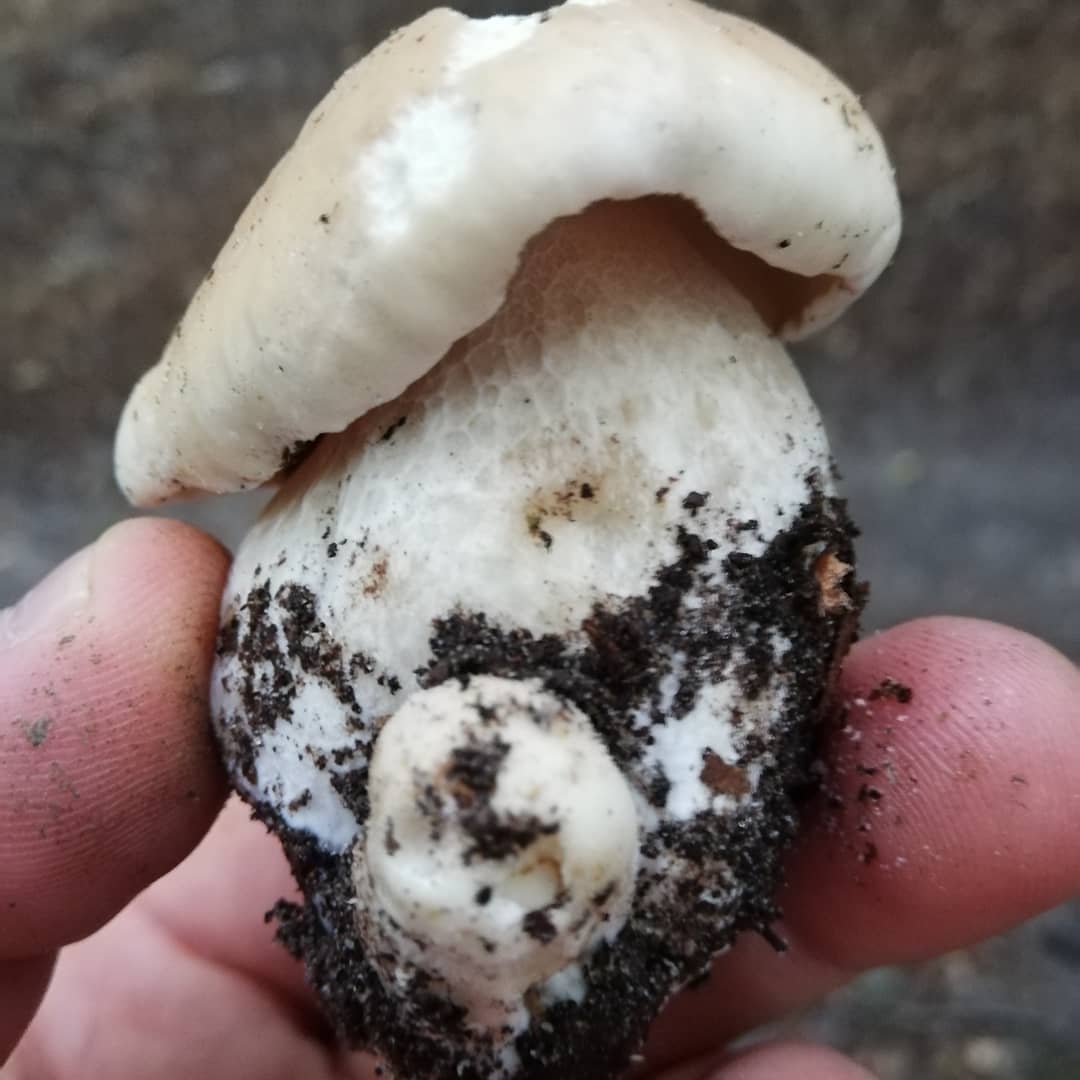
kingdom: Fungi
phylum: Basidiomycota
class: Agaricomycetes
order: Boletales
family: Boletaceae
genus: Boletus
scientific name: Boletus edulis
